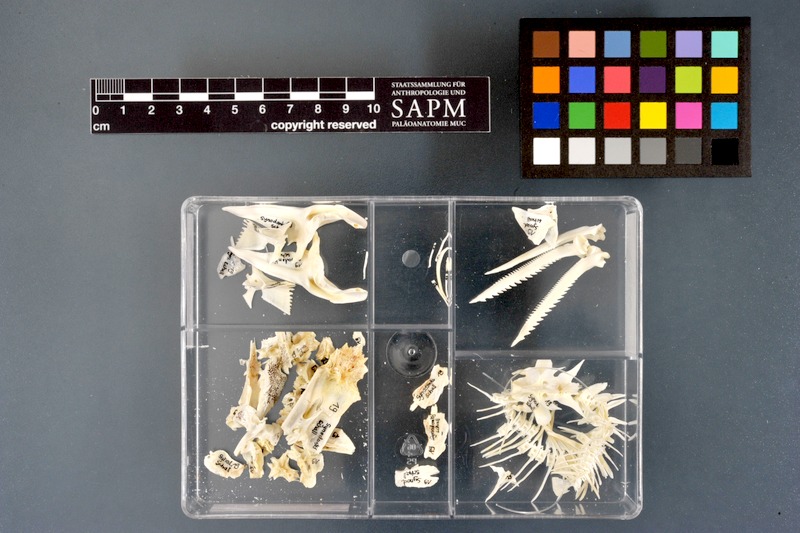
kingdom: Animalia
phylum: Chordata
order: Siluriformes
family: Mochokidae
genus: Synodontis
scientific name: Synodontis schall
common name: Wahrindi
